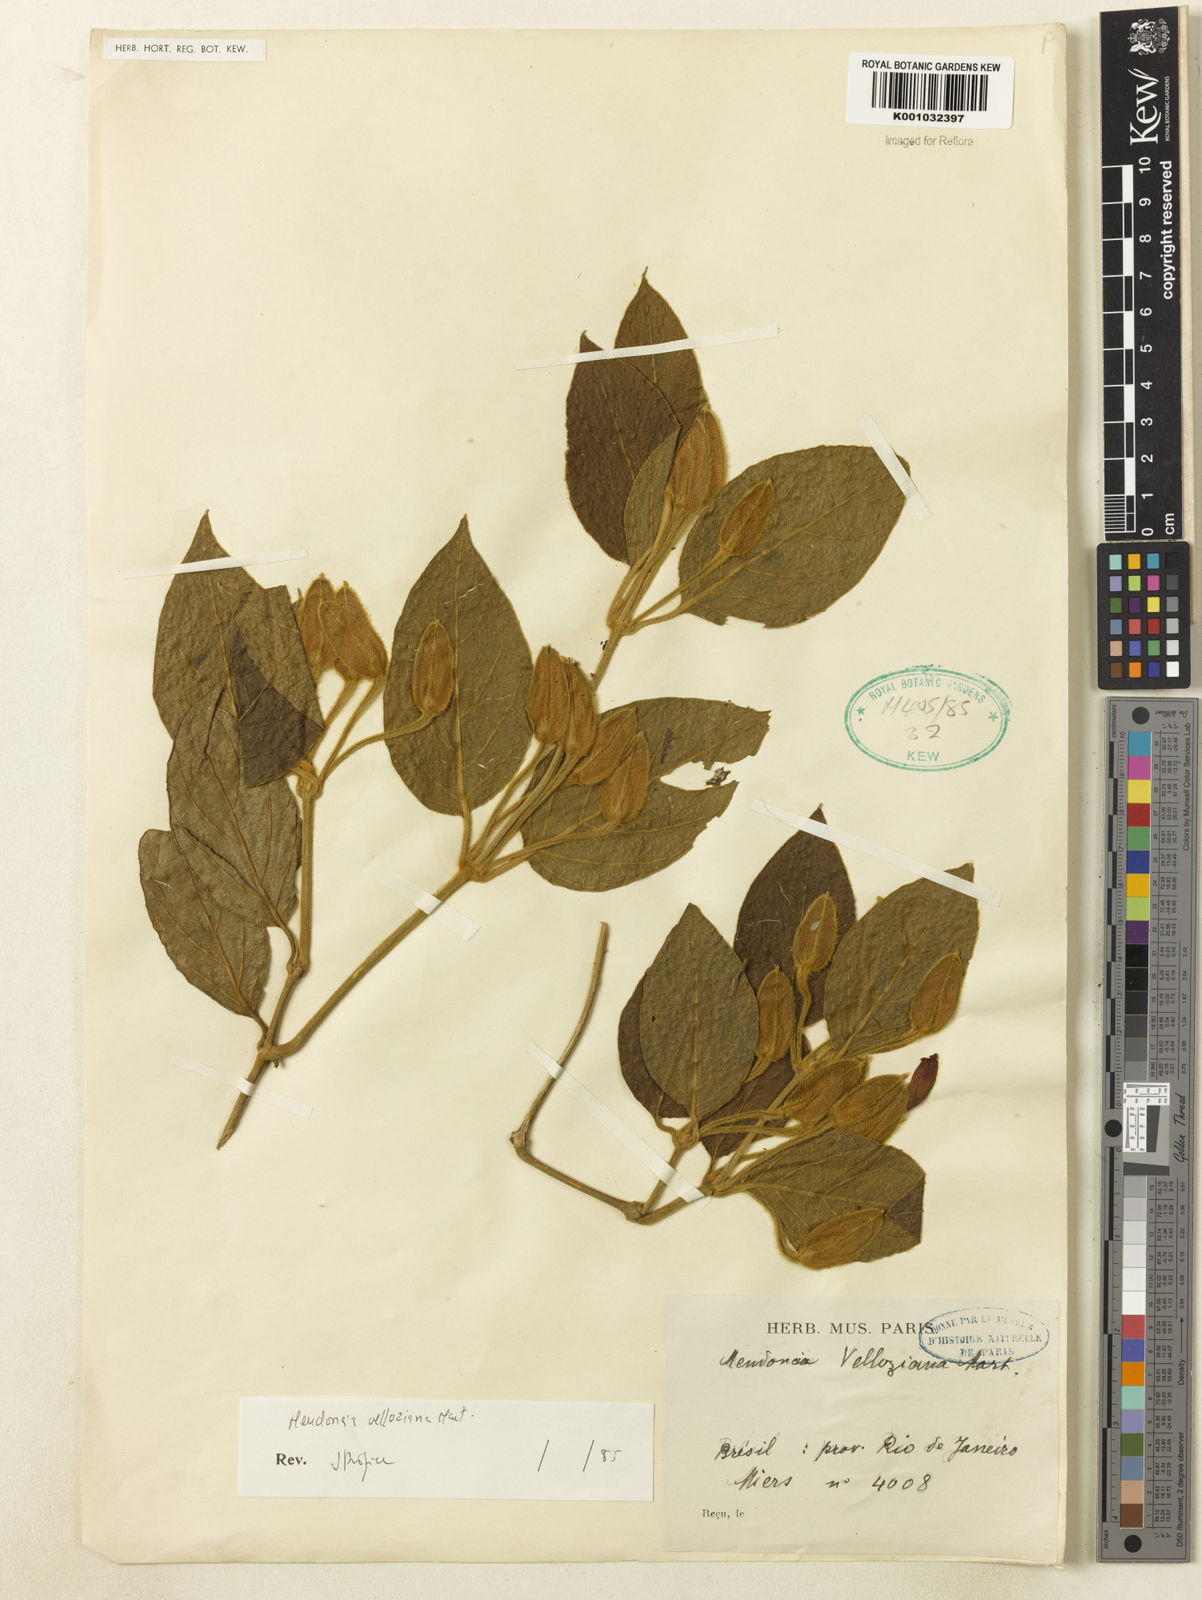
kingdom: Plantae
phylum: Tracheophyta
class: Magnoliopsida
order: Lamiales
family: Acanthaceae
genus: Mendoncia
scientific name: Mendoncia velloziana
